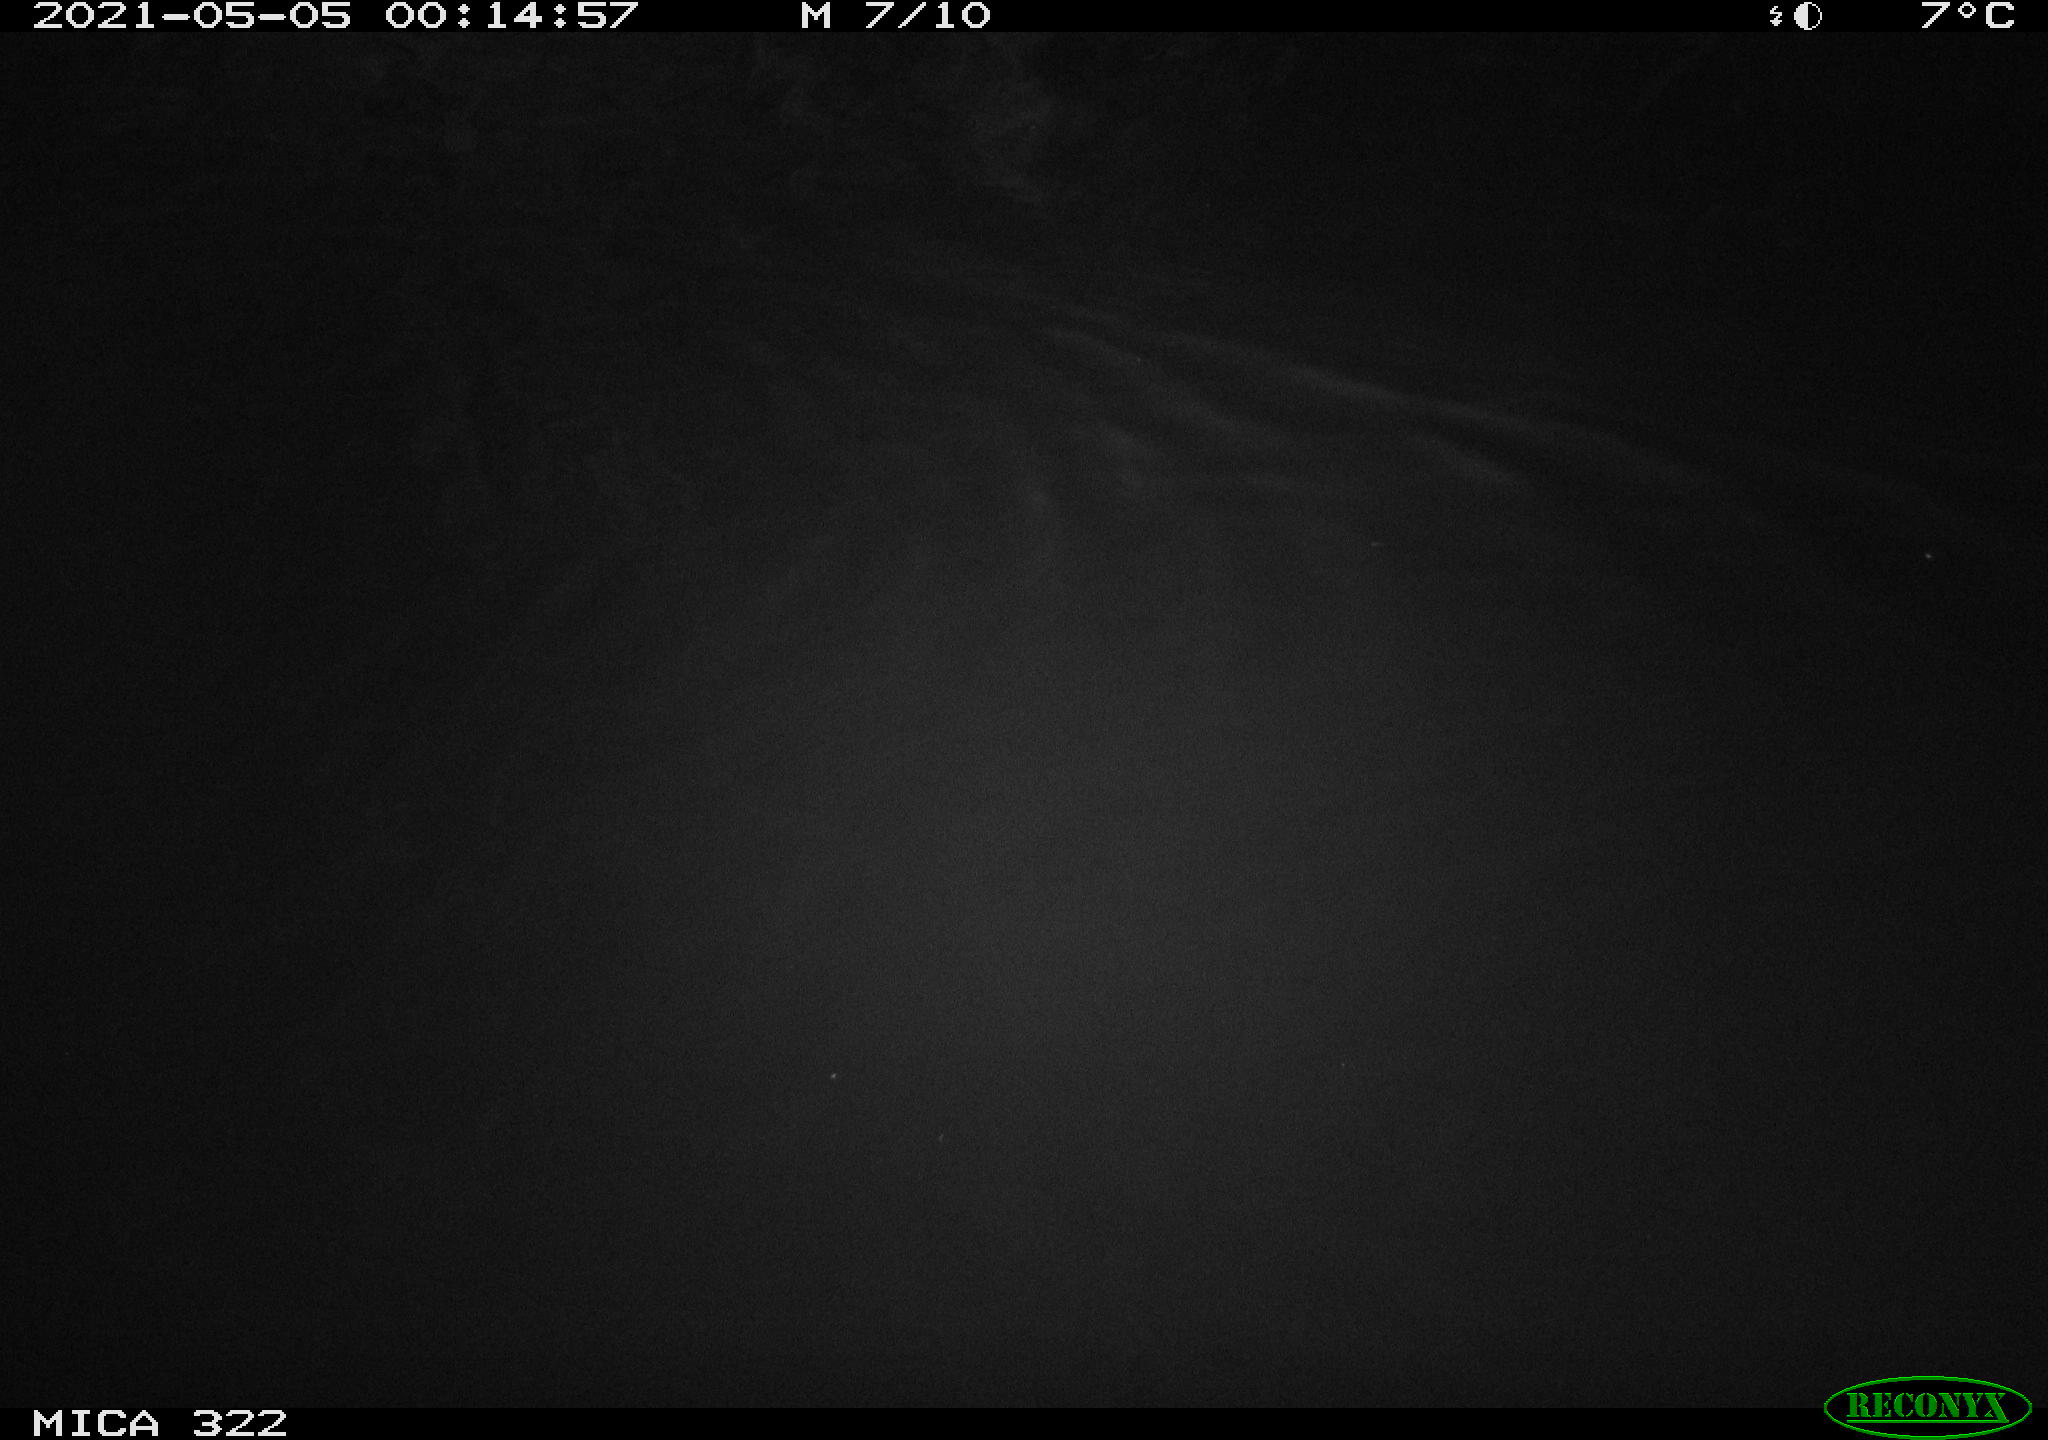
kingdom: Animalia
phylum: Chordata
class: Aves
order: Anseriformes
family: Anatidae
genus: Anas
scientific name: Anas platyrhynchos
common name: Mallard
